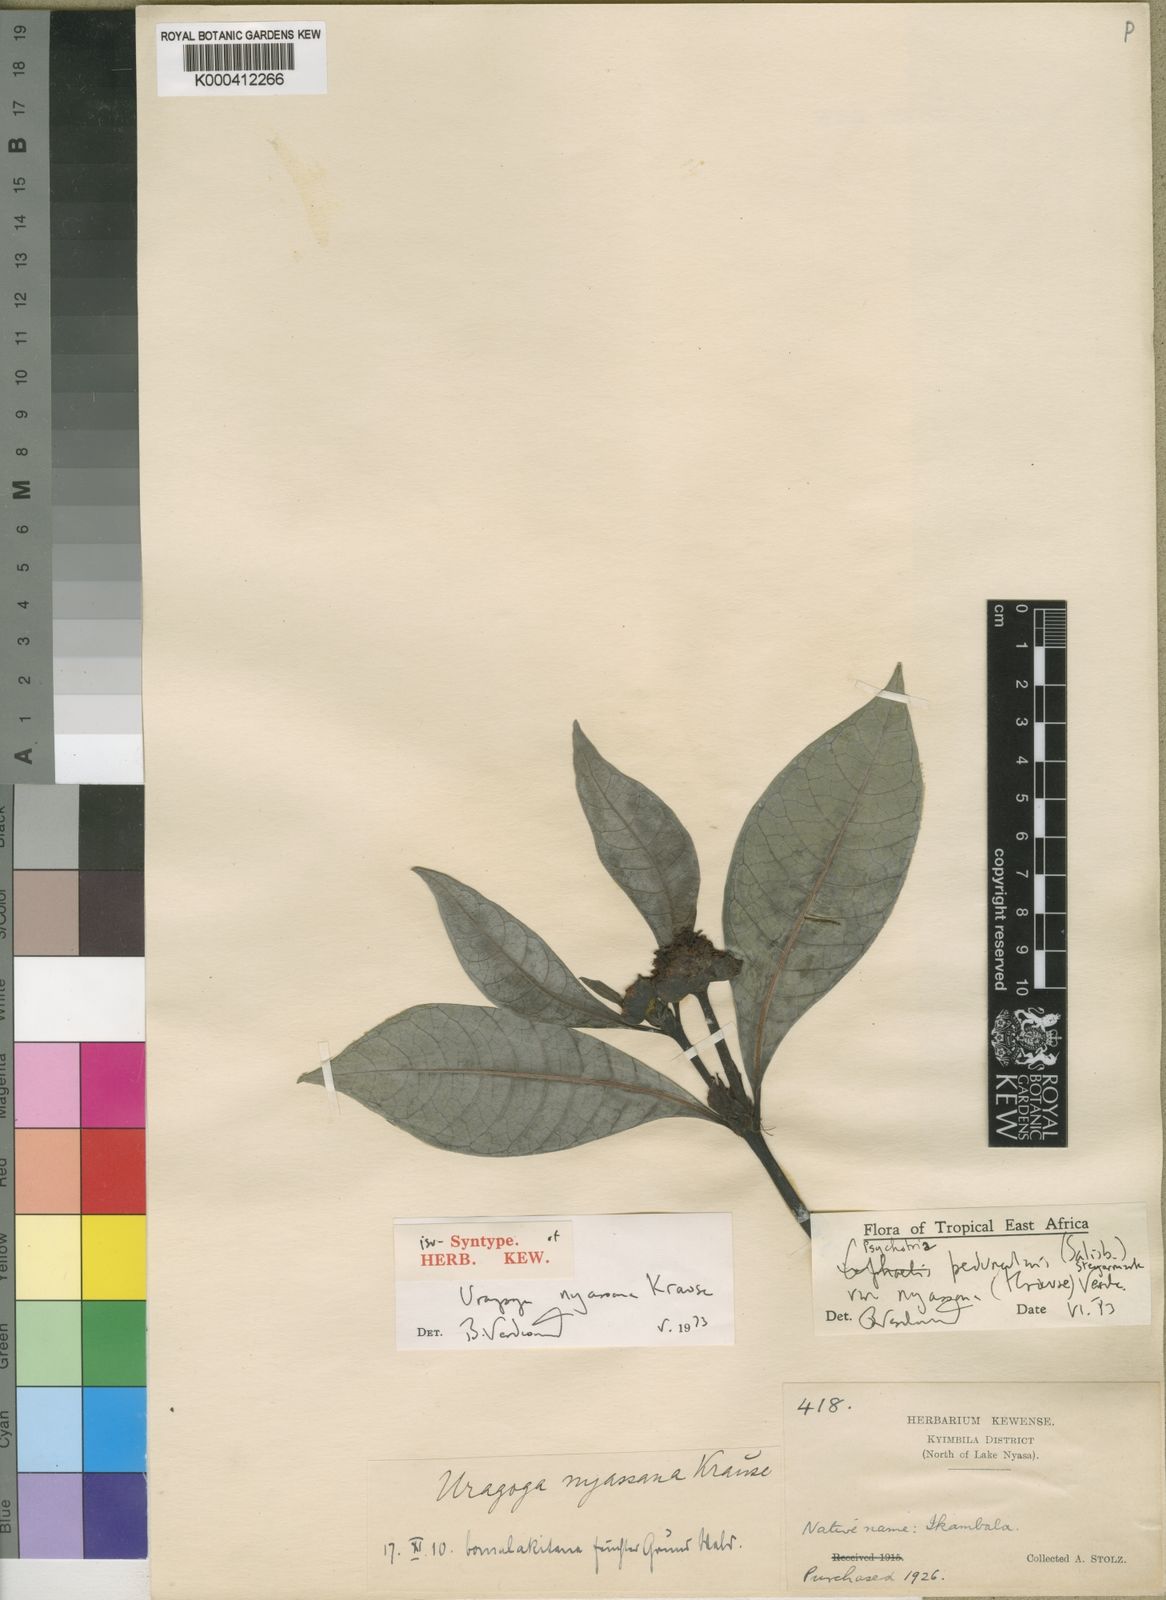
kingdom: Plantae
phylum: Tracheophyta
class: Magnoliopsida
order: Gentianales
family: Rubiaceae
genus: Psychotria
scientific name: Psychotria peduncularis
